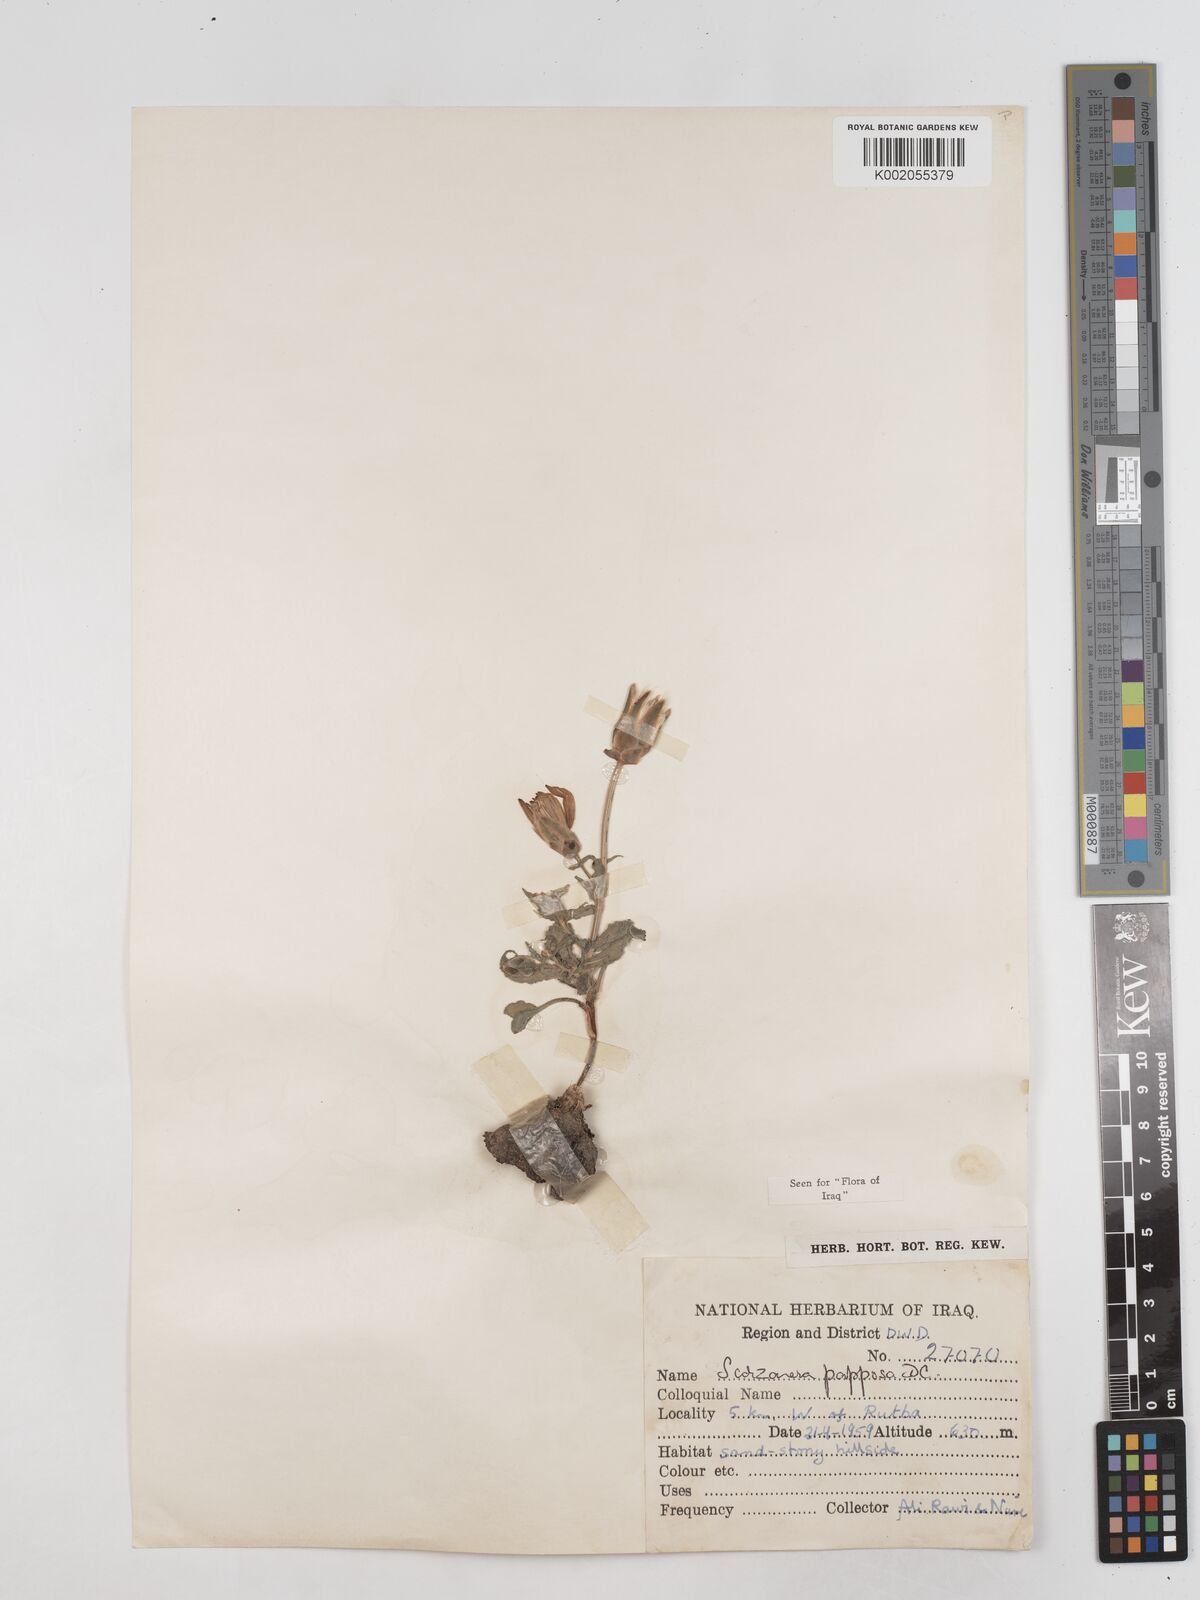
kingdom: Plantae
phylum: Tracheophyta
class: Magnoliopsida
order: Asterales
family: Asteraceae
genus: Pseudopodospermum
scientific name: Pseudopodospermum papposum
